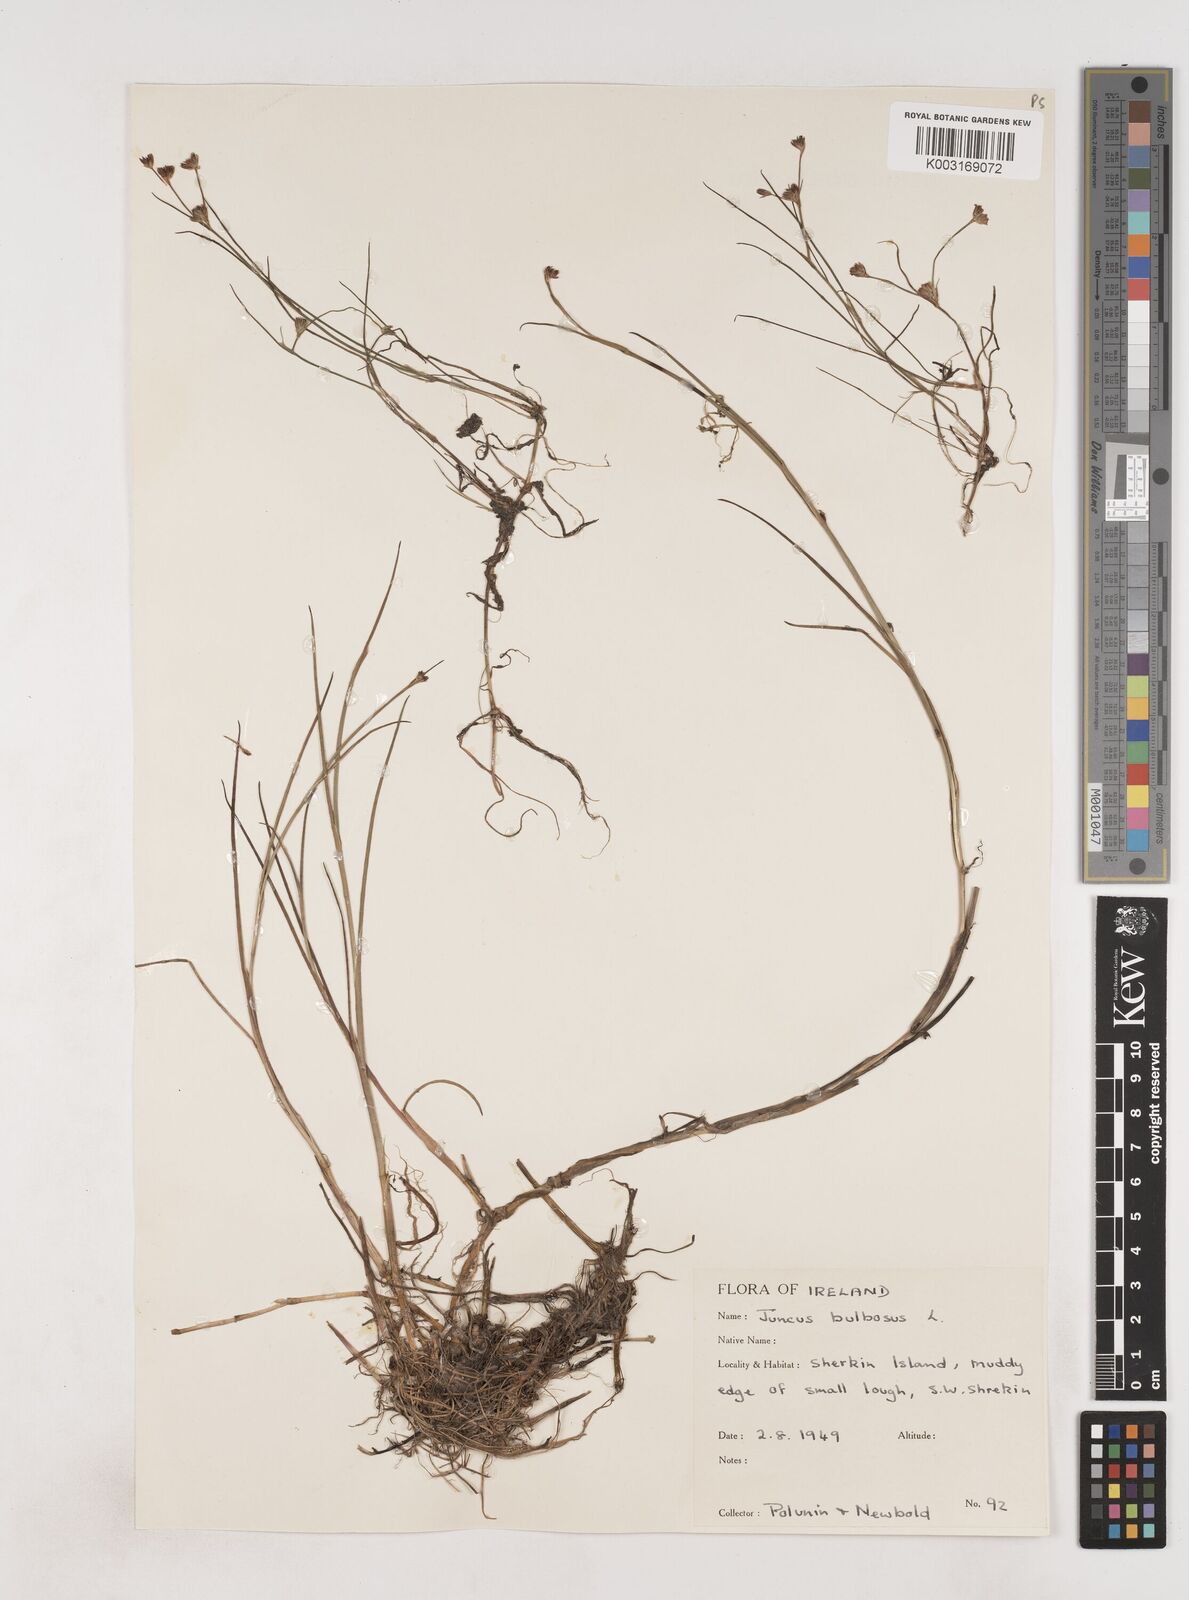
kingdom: Plantae
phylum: Tracheophyta
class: Liliopsida
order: Poales
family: Juncaceae
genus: Juncus
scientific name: Juncus bulbosus
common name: Bulbous rush
